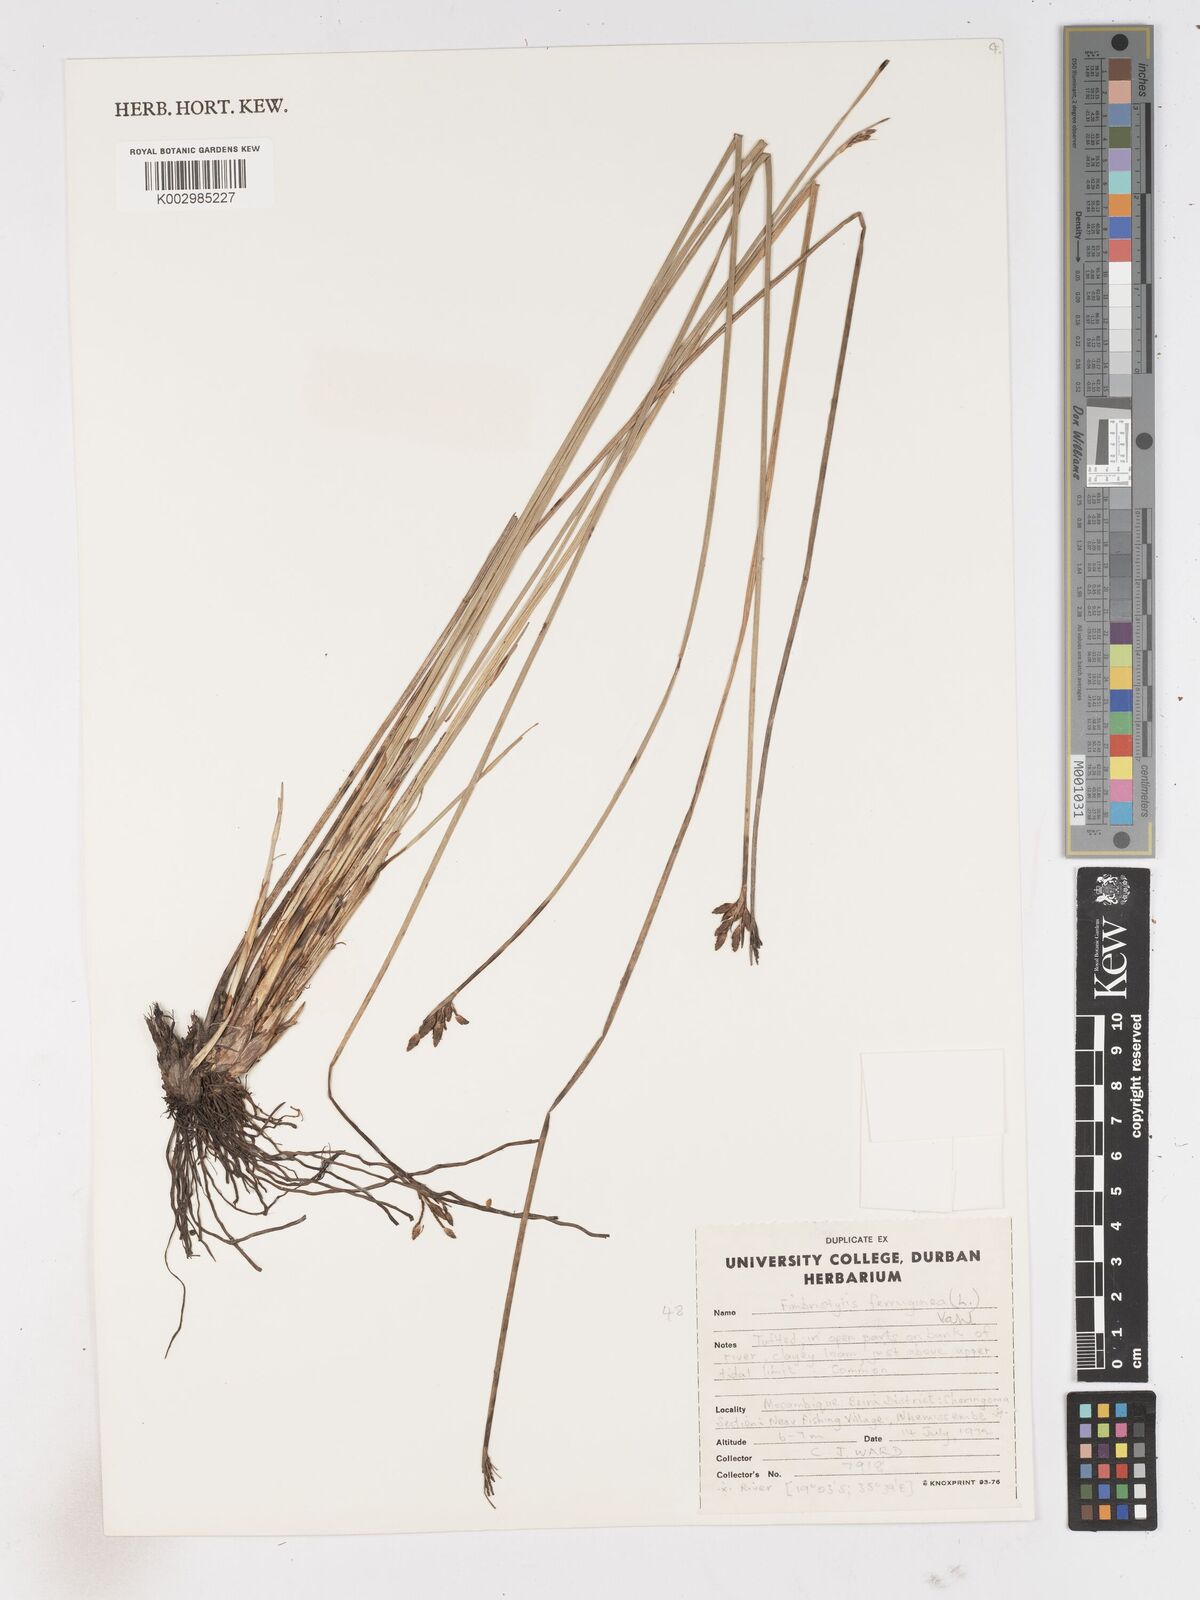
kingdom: Plantae
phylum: Tracheophyta
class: Liliopsida
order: Poales
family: Cyperaceae
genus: Fimbristylis
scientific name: Fimbristylis ferruginea
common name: West indian fimbry
